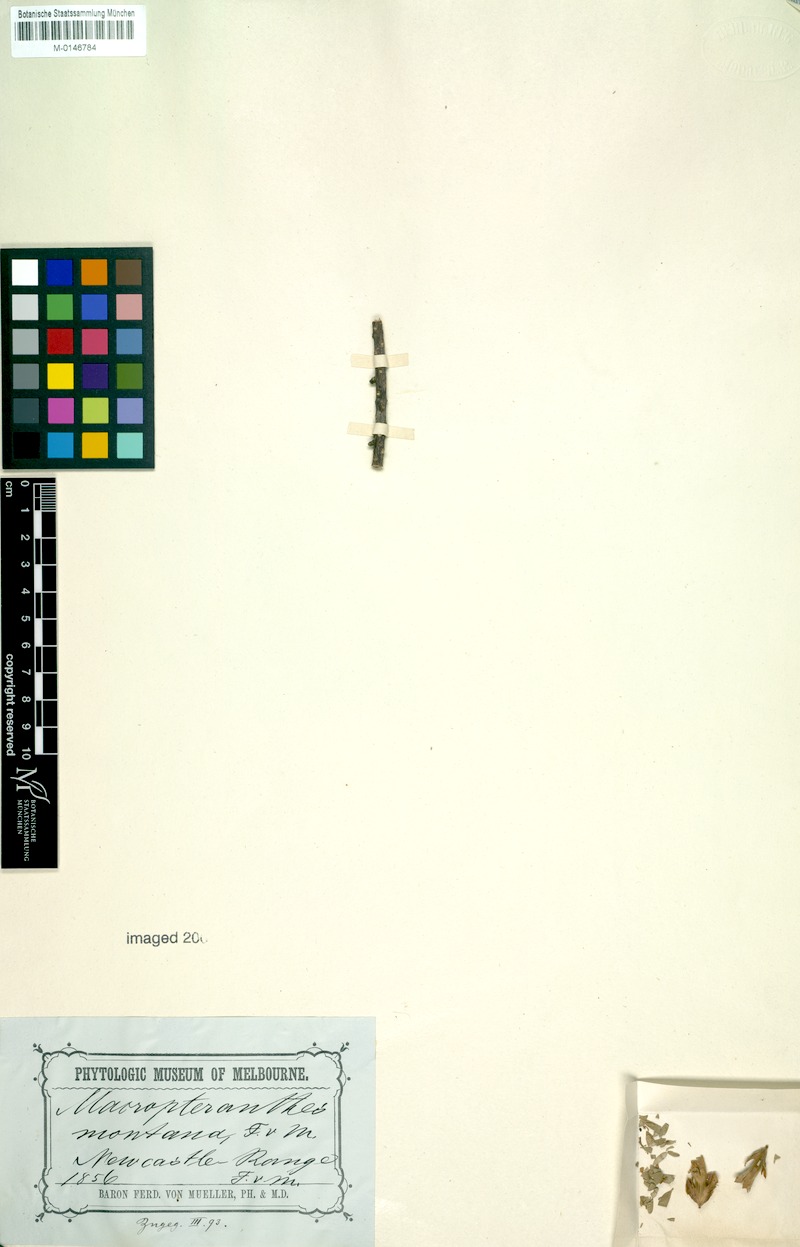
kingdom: Plantae
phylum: Tracheophyta
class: Magnoliopsida
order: Myrtales
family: Combretaceae
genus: Macropteranthes
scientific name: Macropteranthes montana
